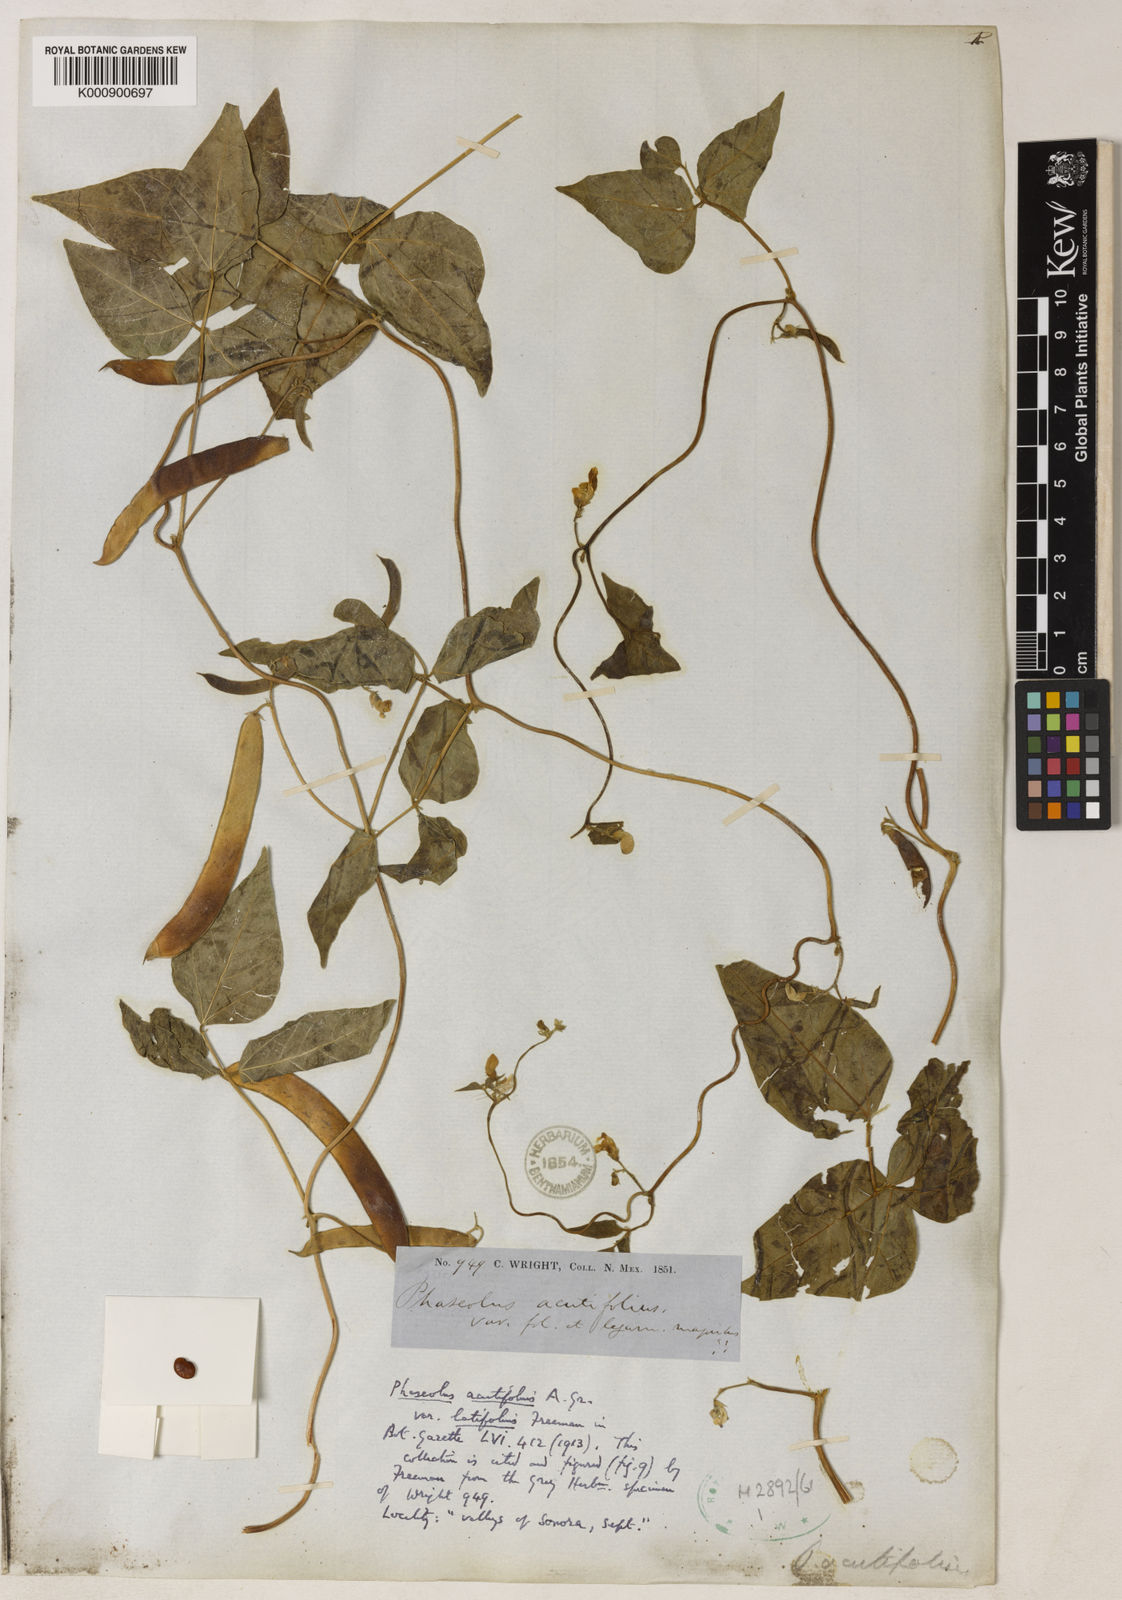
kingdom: Plantae
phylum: Tracheophyta
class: Magnoliopsida
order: Fabales
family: Fabaceae
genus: Phaseolus
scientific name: Phaseolus acutifolius
